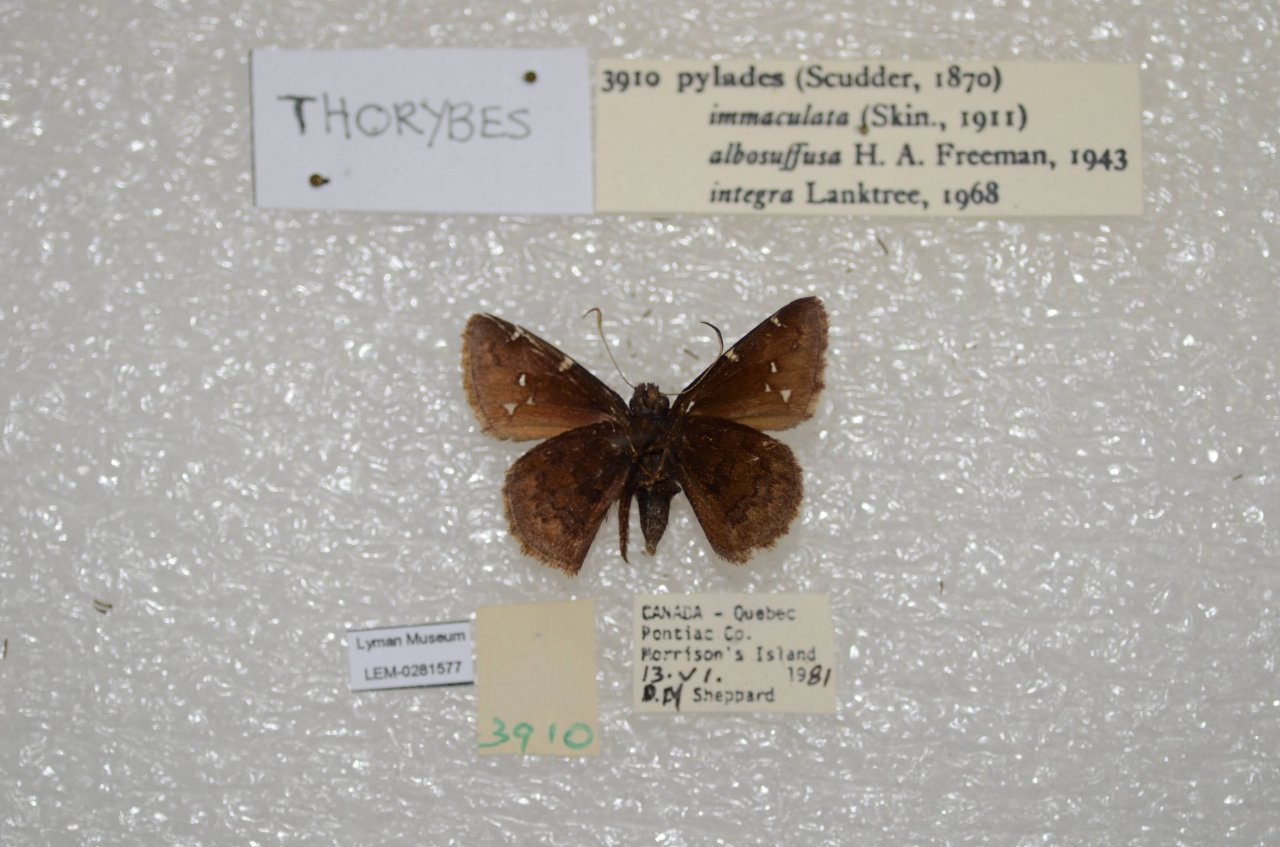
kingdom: Animalia
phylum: Arthropoda
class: Insecta
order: Lepidoptera
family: Hesperiidae
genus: Autochton
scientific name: Autochton
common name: Northern Cloudywing
